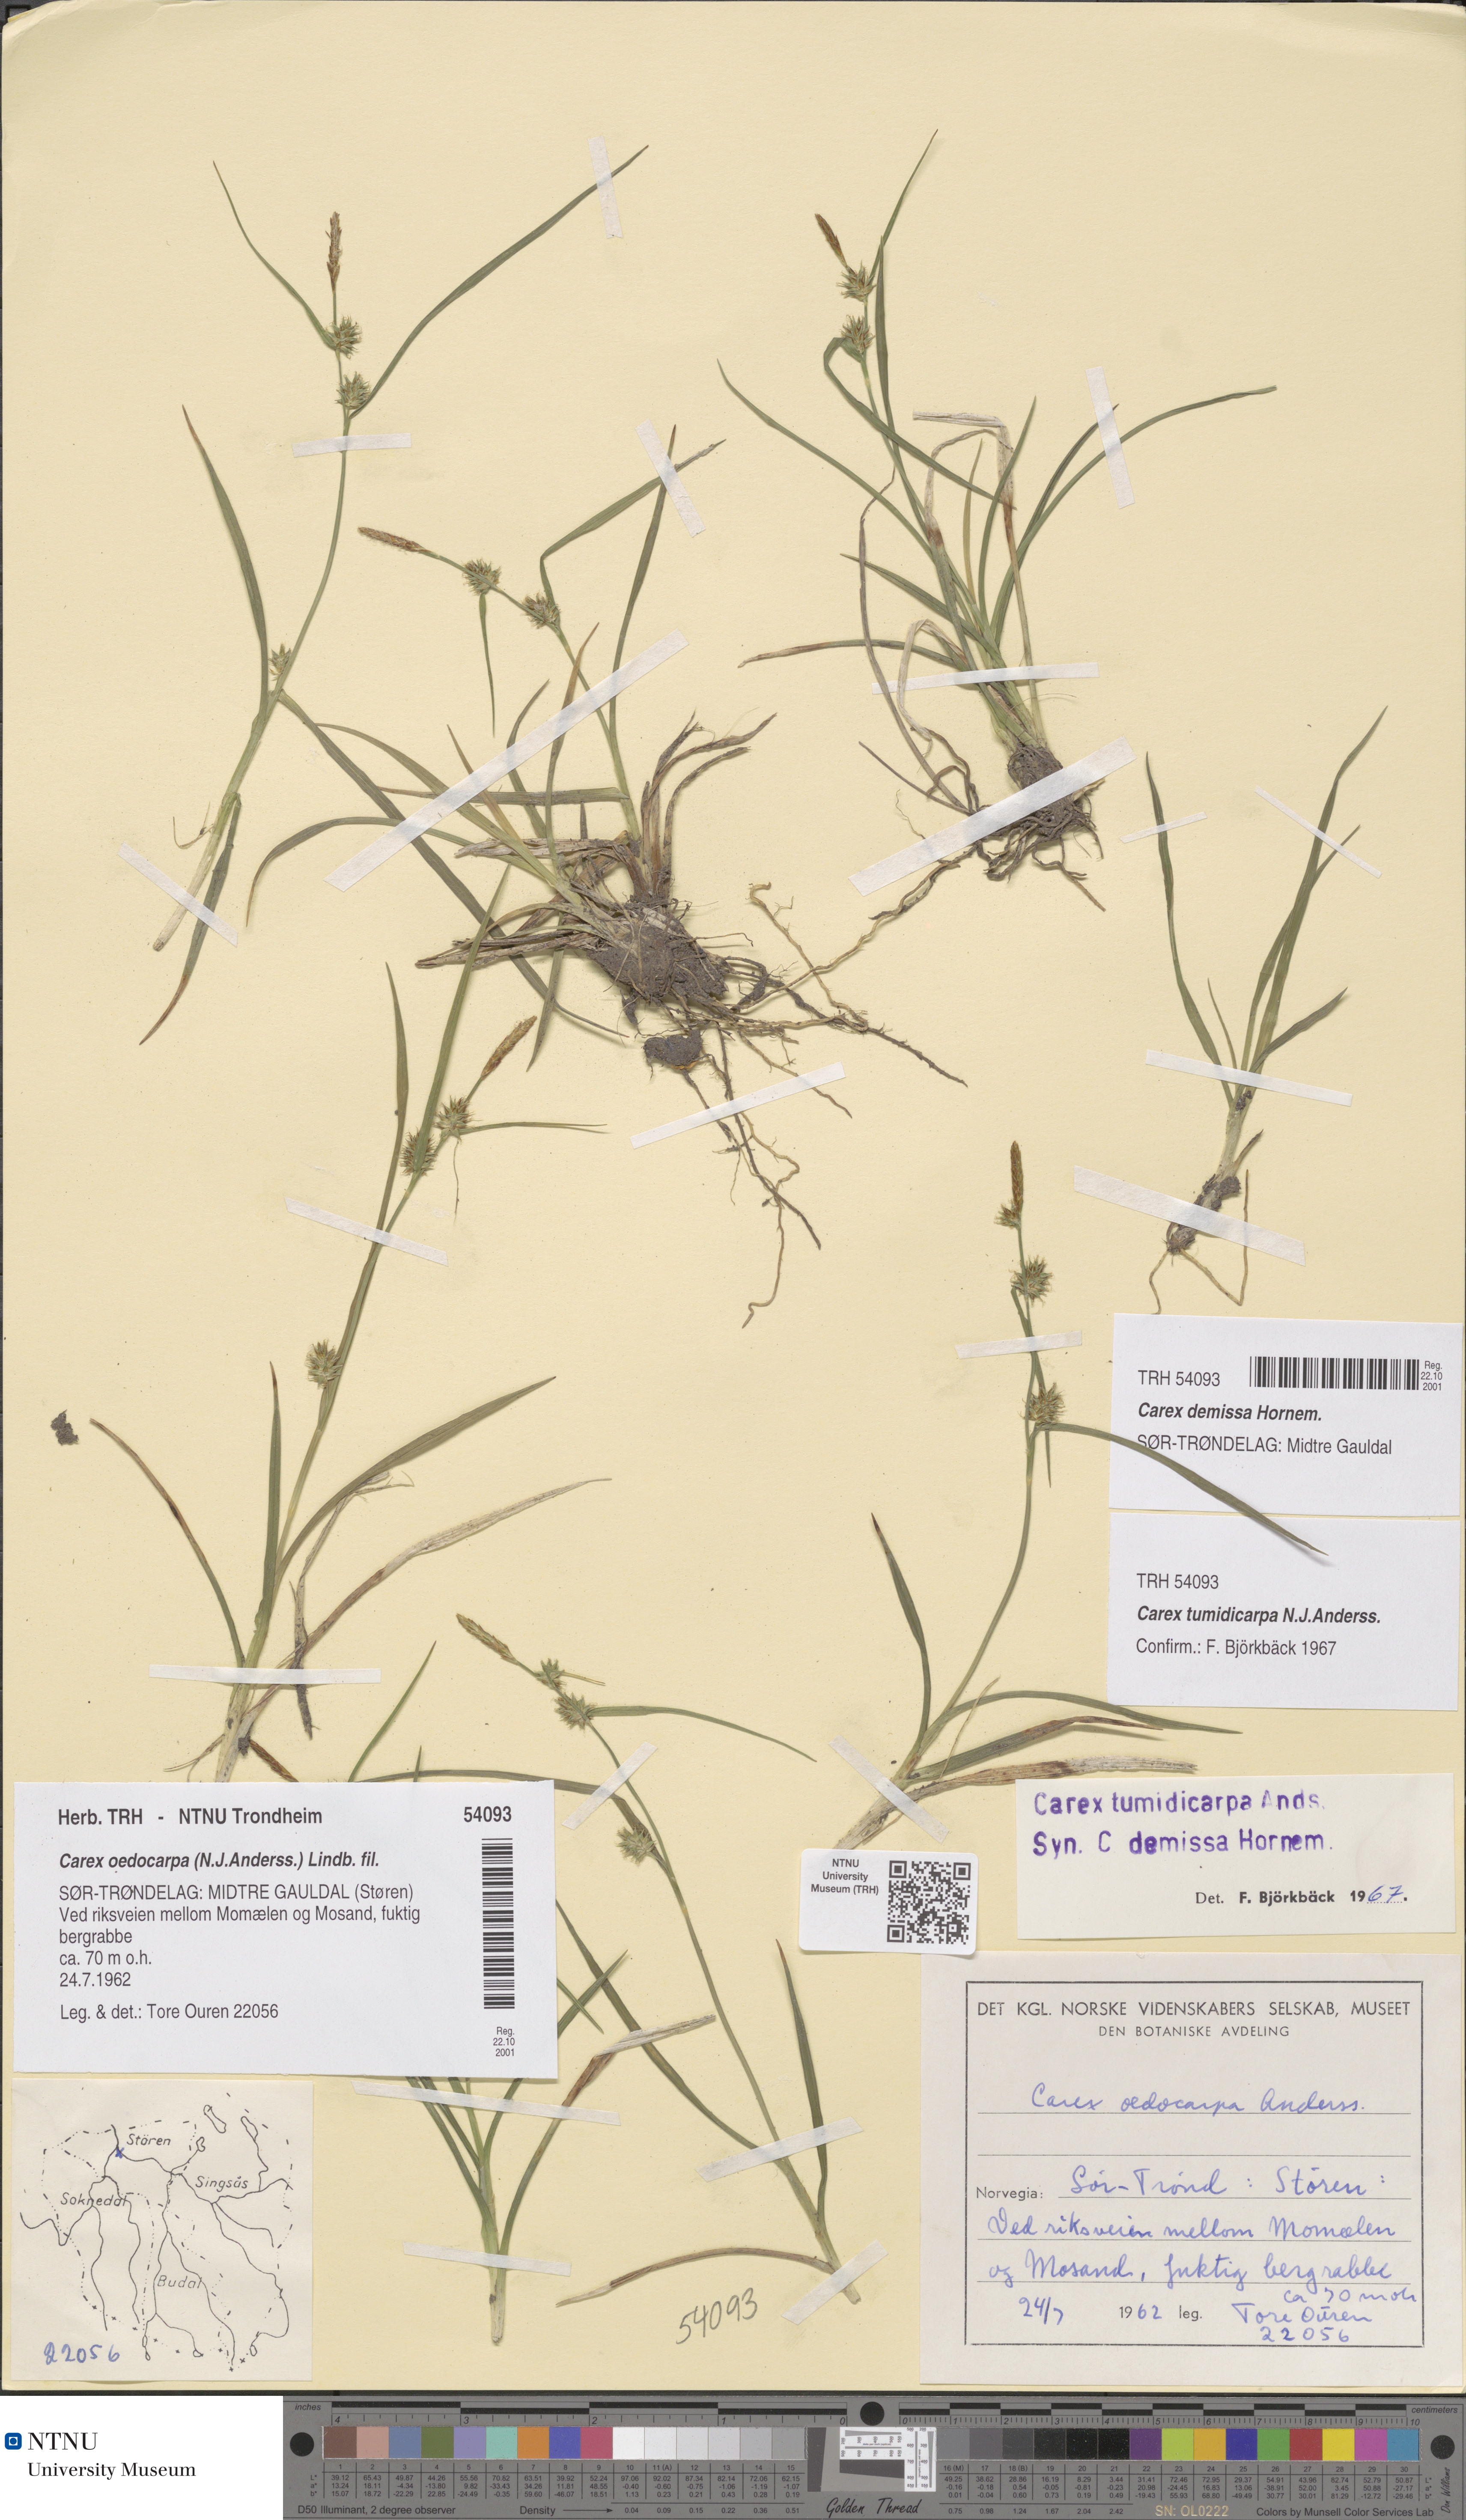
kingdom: Plantae
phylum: Tracheophyta
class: Liliopsida
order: Poales
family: Cyperaceae
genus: Carex
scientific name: Carex demissa
